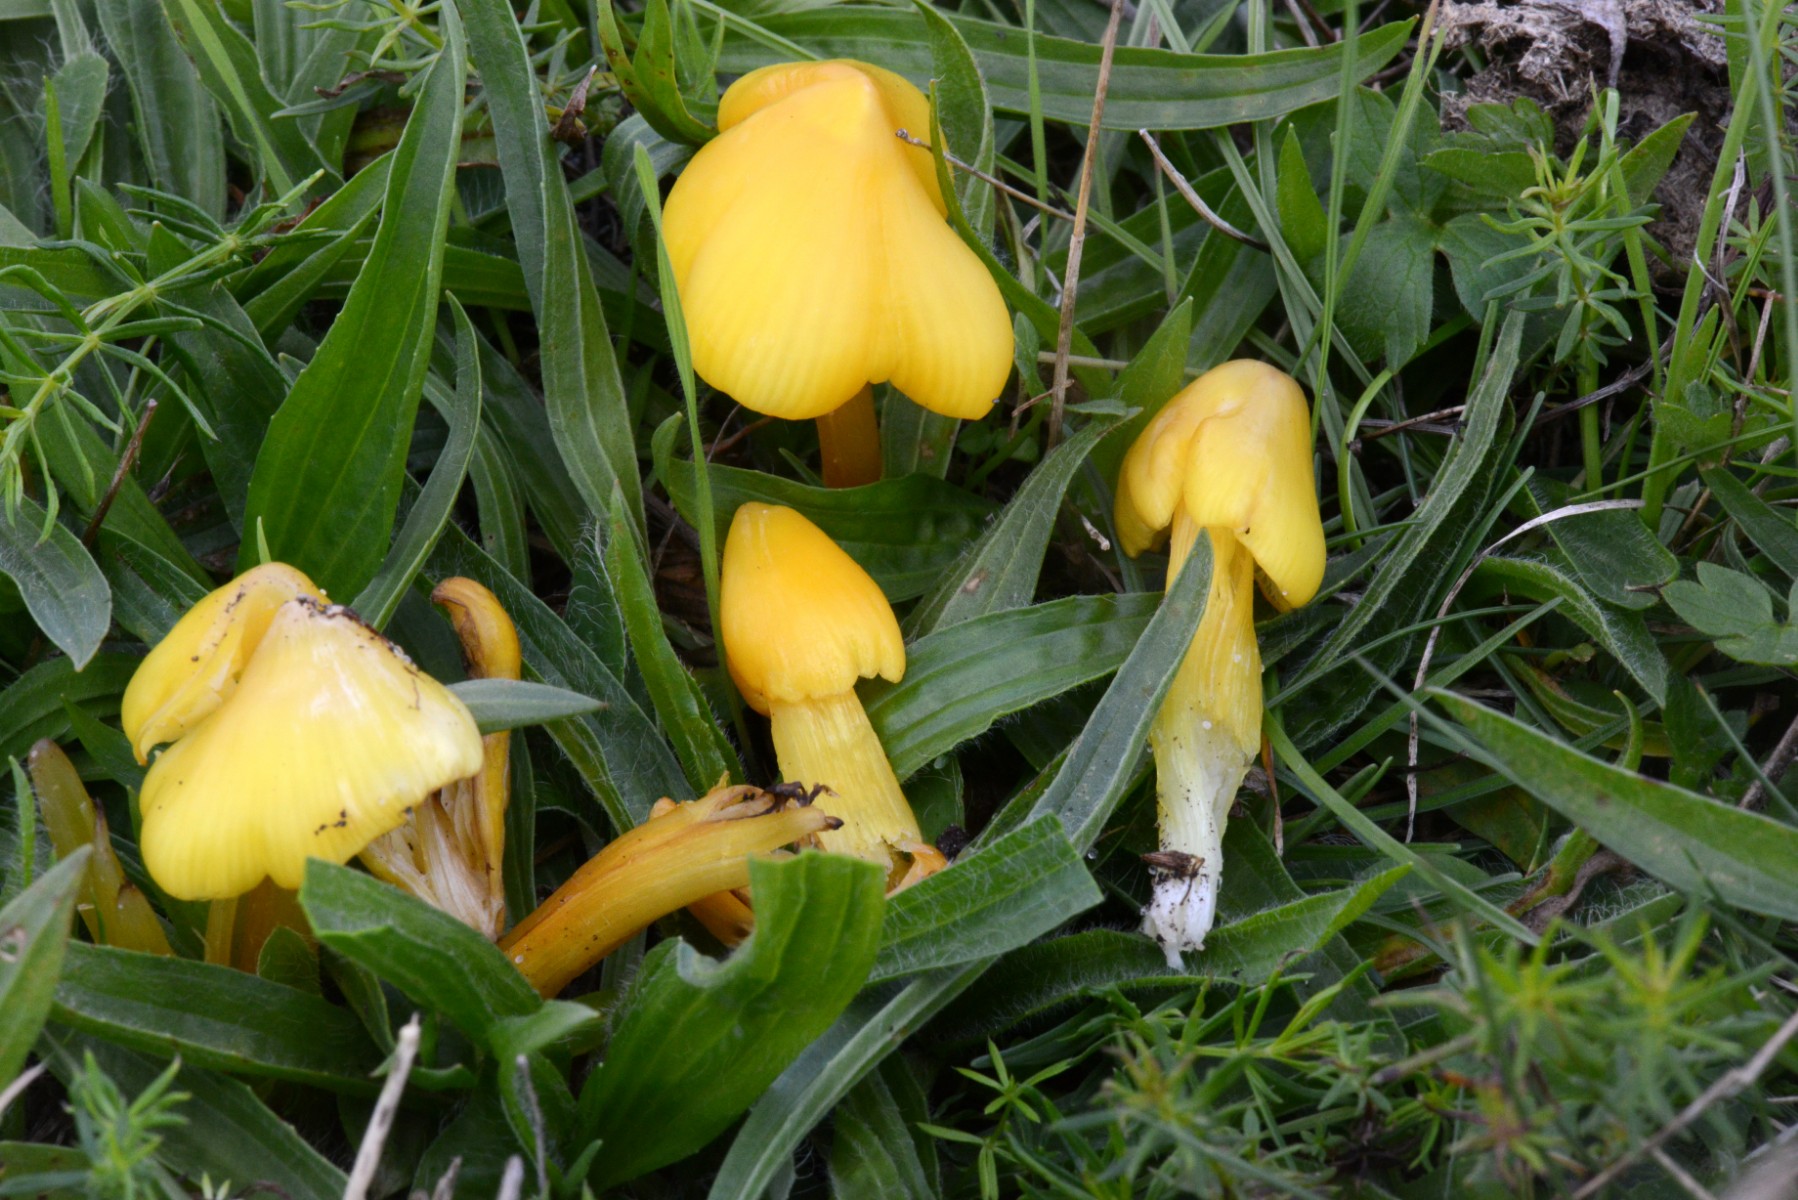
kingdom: Fungi
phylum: Basidiomycota
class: Agaricomycetes
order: Agaricales
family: Hygrophoraceae
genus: Hygrocybe
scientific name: Hygrocybe acutoconica
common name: spidspuklet vokshat
